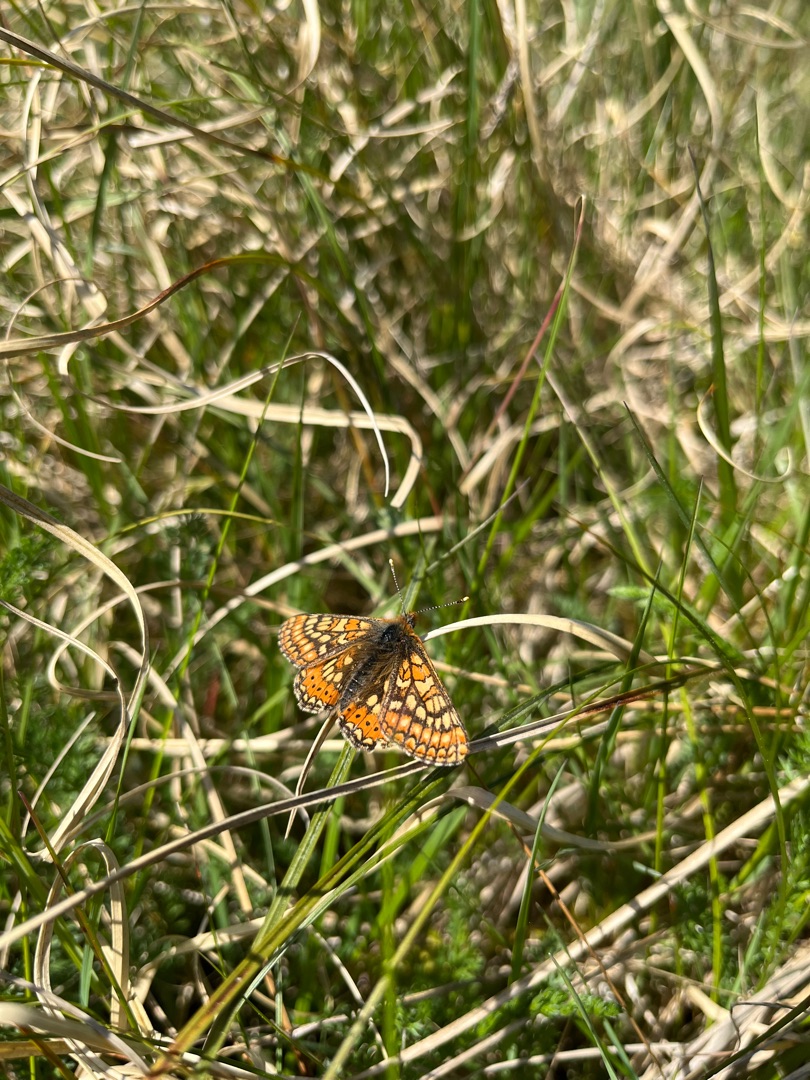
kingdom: Animalia
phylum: Arthropoda
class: Insecta
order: Lepidoptera
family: Nymphalidae
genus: Euphydryas
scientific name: Euphydryas aurinia
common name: Hedepletvinge
